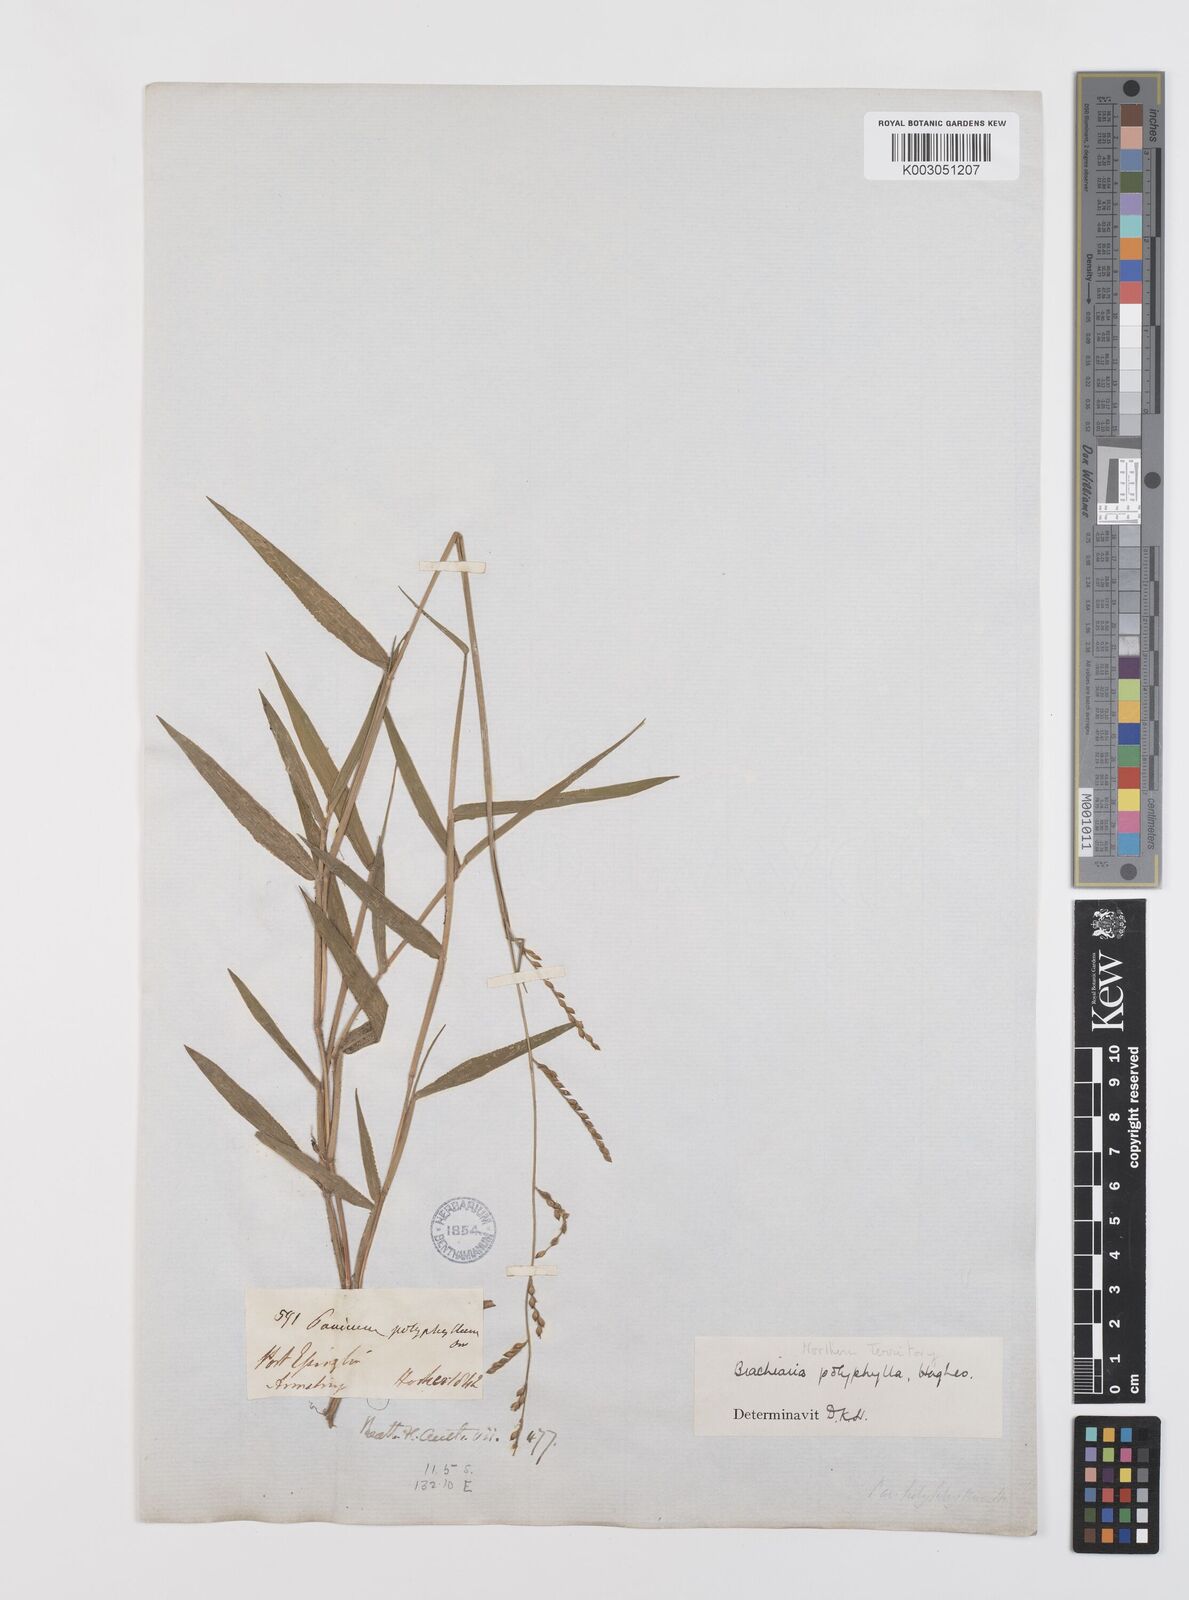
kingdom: Plantae
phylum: Tracheophyta
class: Liliopsida
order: Poales
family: Poaceae
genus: Urochloa
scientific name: Urochloa polyphylla
